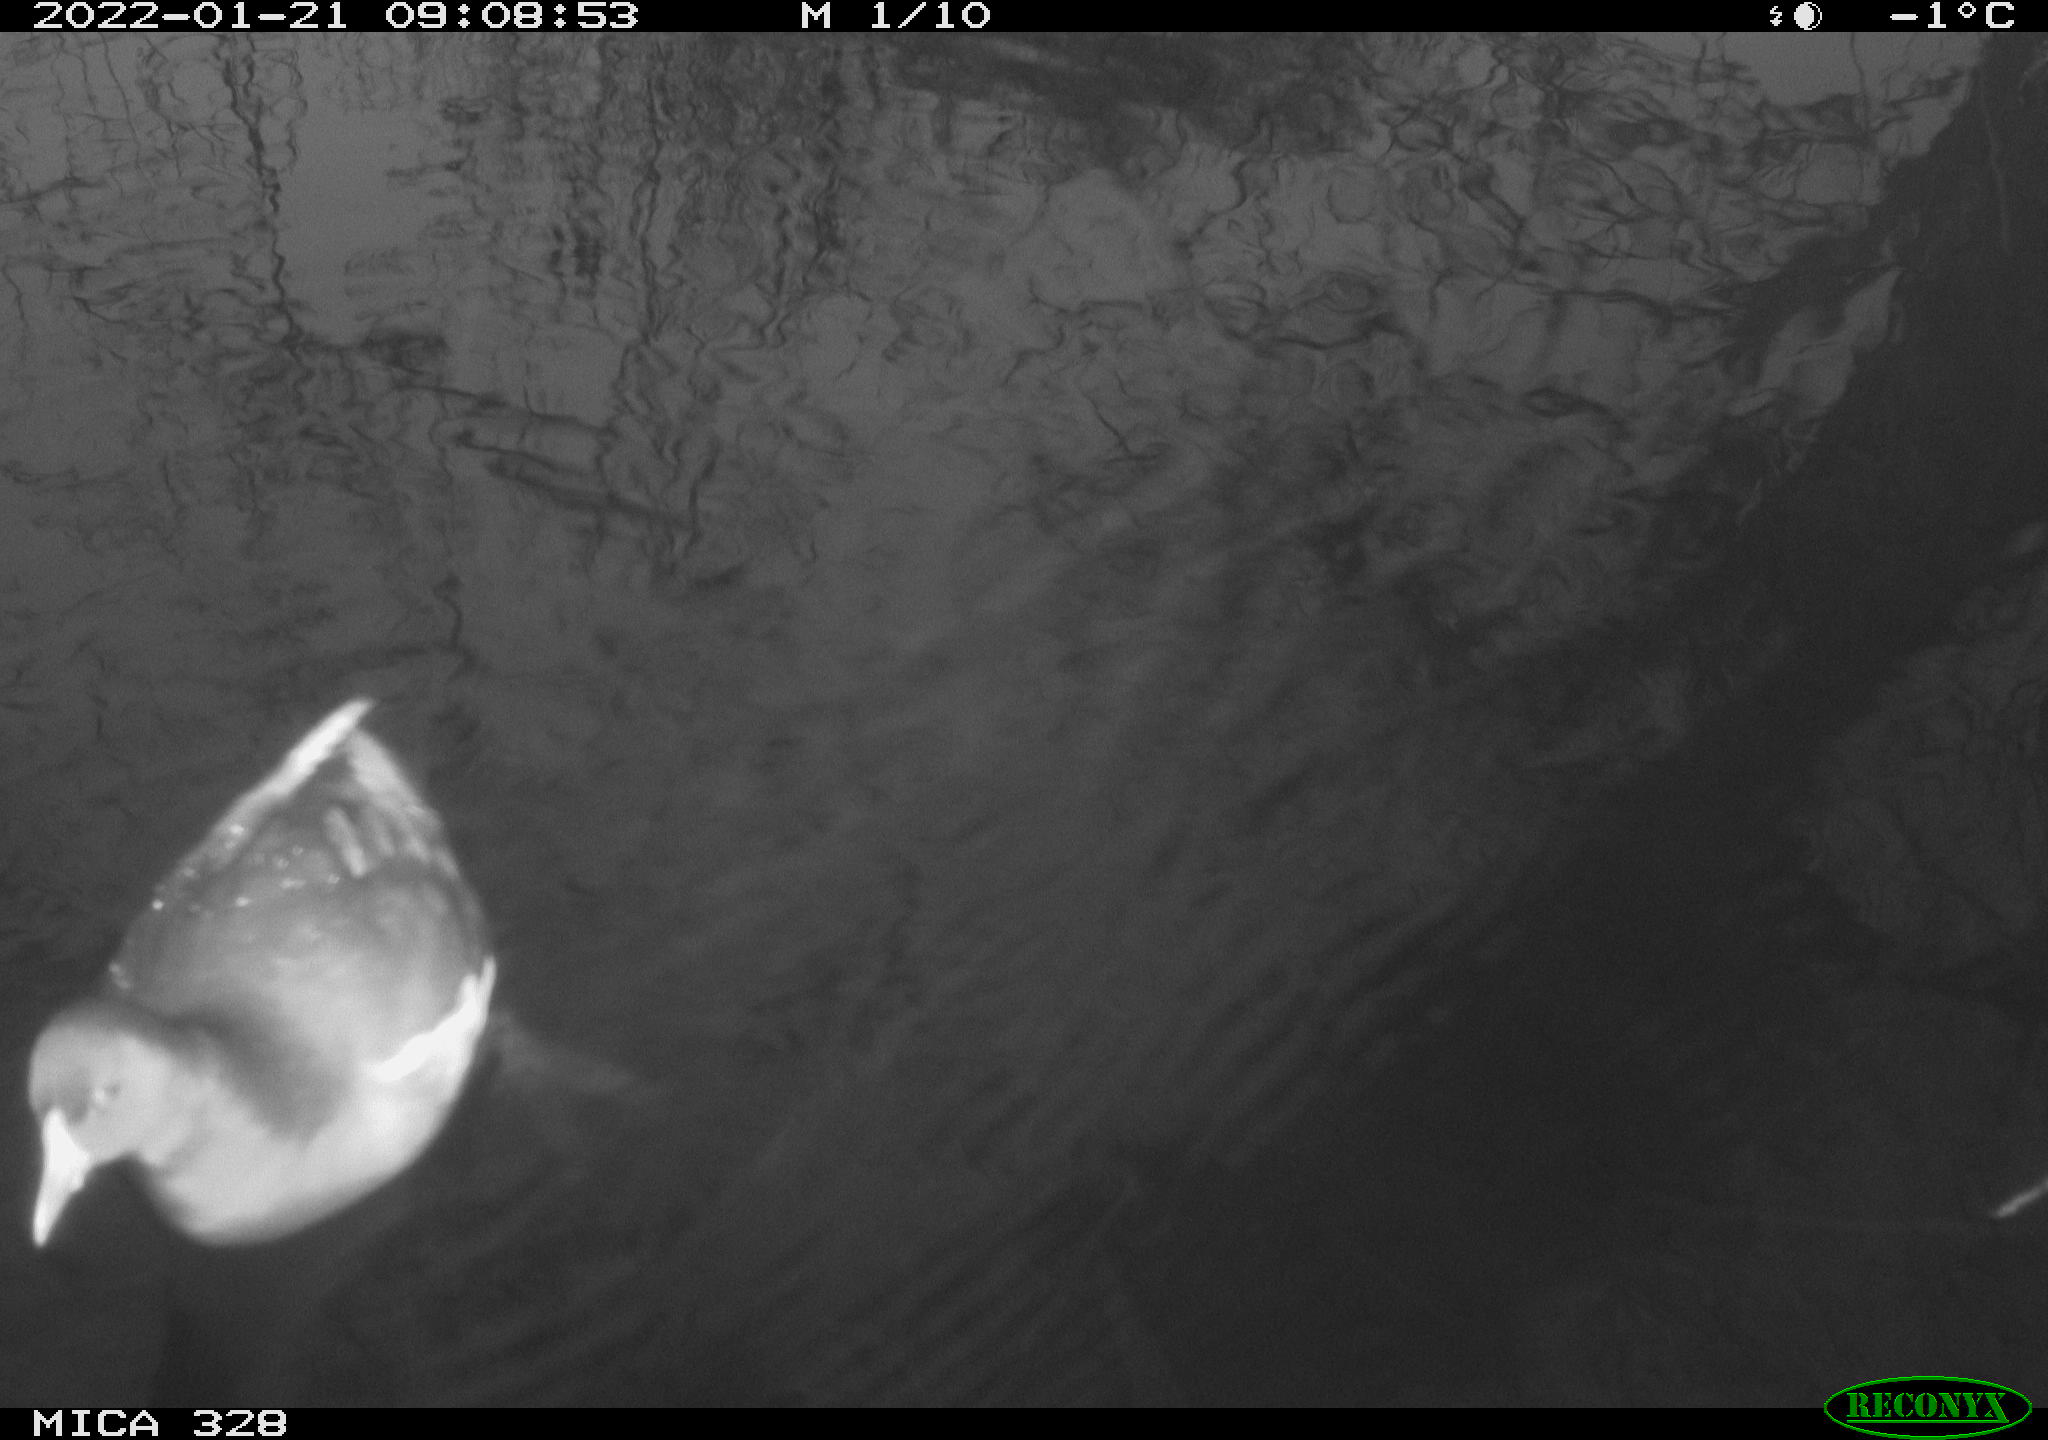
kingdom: Animalia
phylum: Chordata
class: Aves
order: Gruiformes
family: Rallidae
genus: Gallinula
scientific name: Gallinula chloropus
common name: Common moorhen
